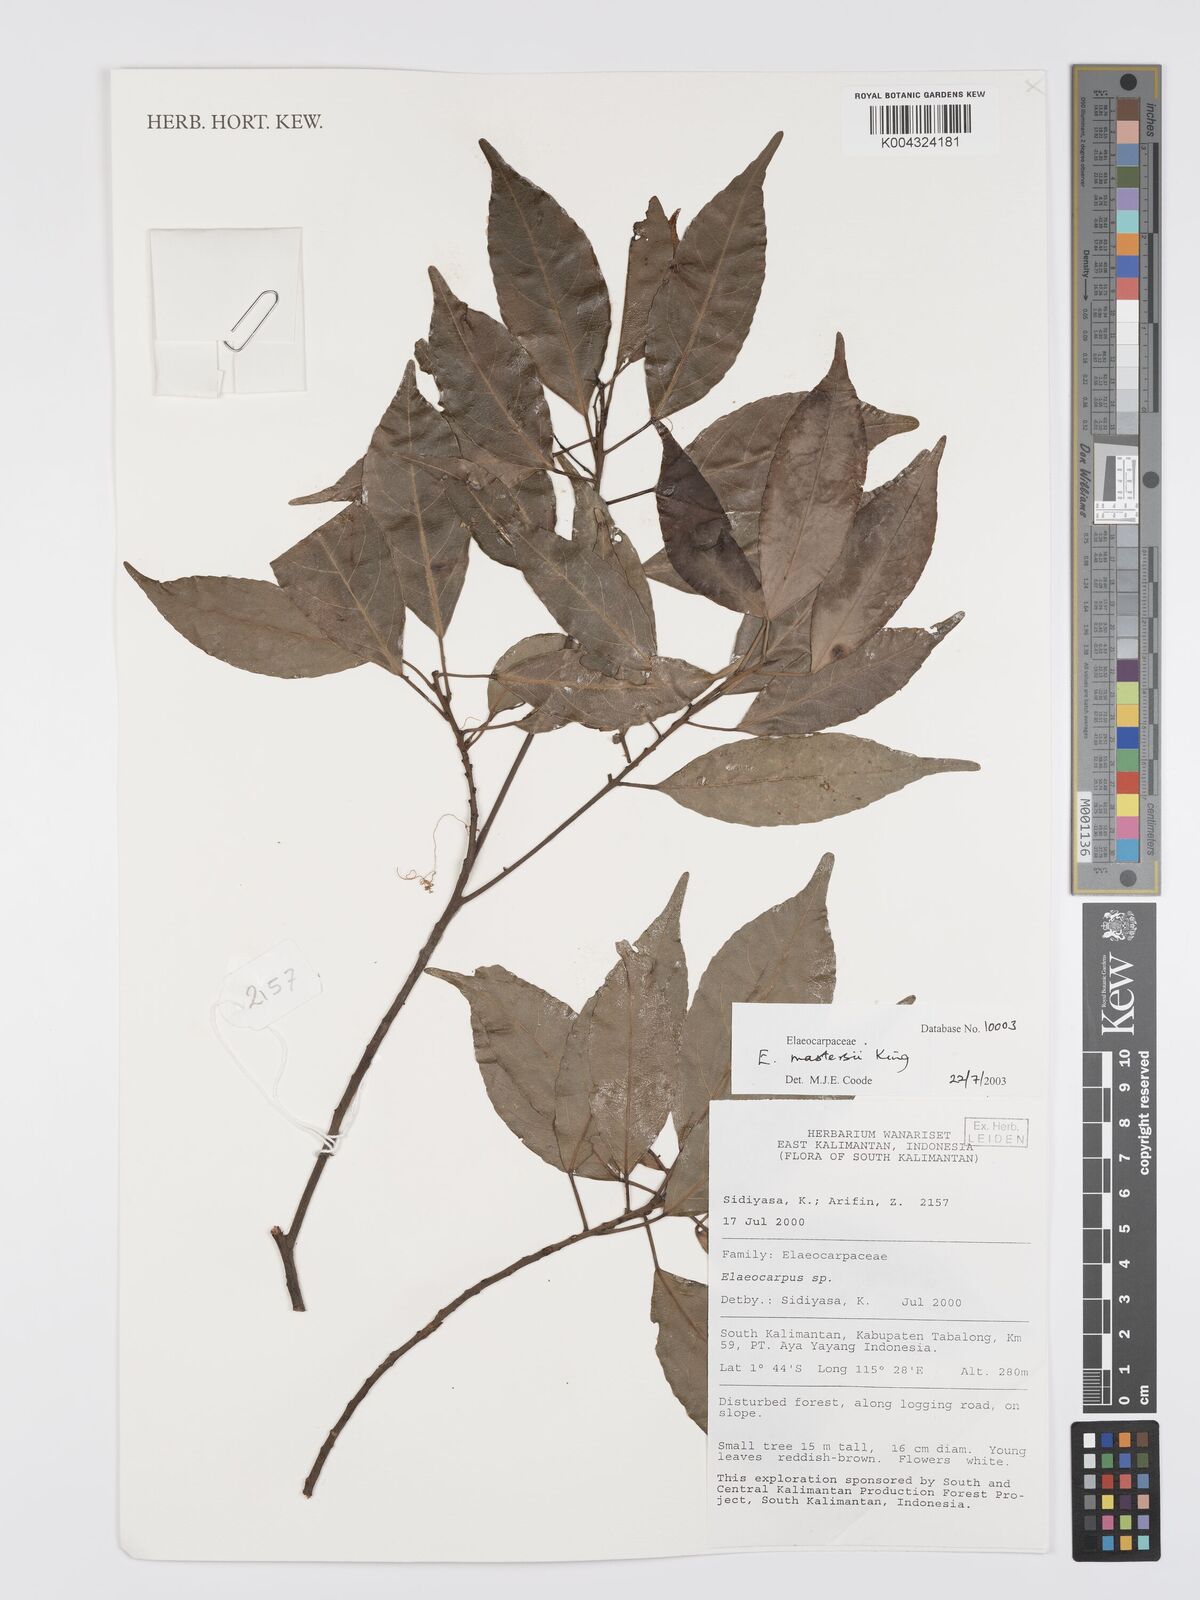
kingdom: Plantae
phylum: Tracheophyta
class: Magnoliopsida
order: Oxalidales
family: Elaeocarpaceae
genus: Elaeocarpus
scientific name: Elaeocarpus mastersii
